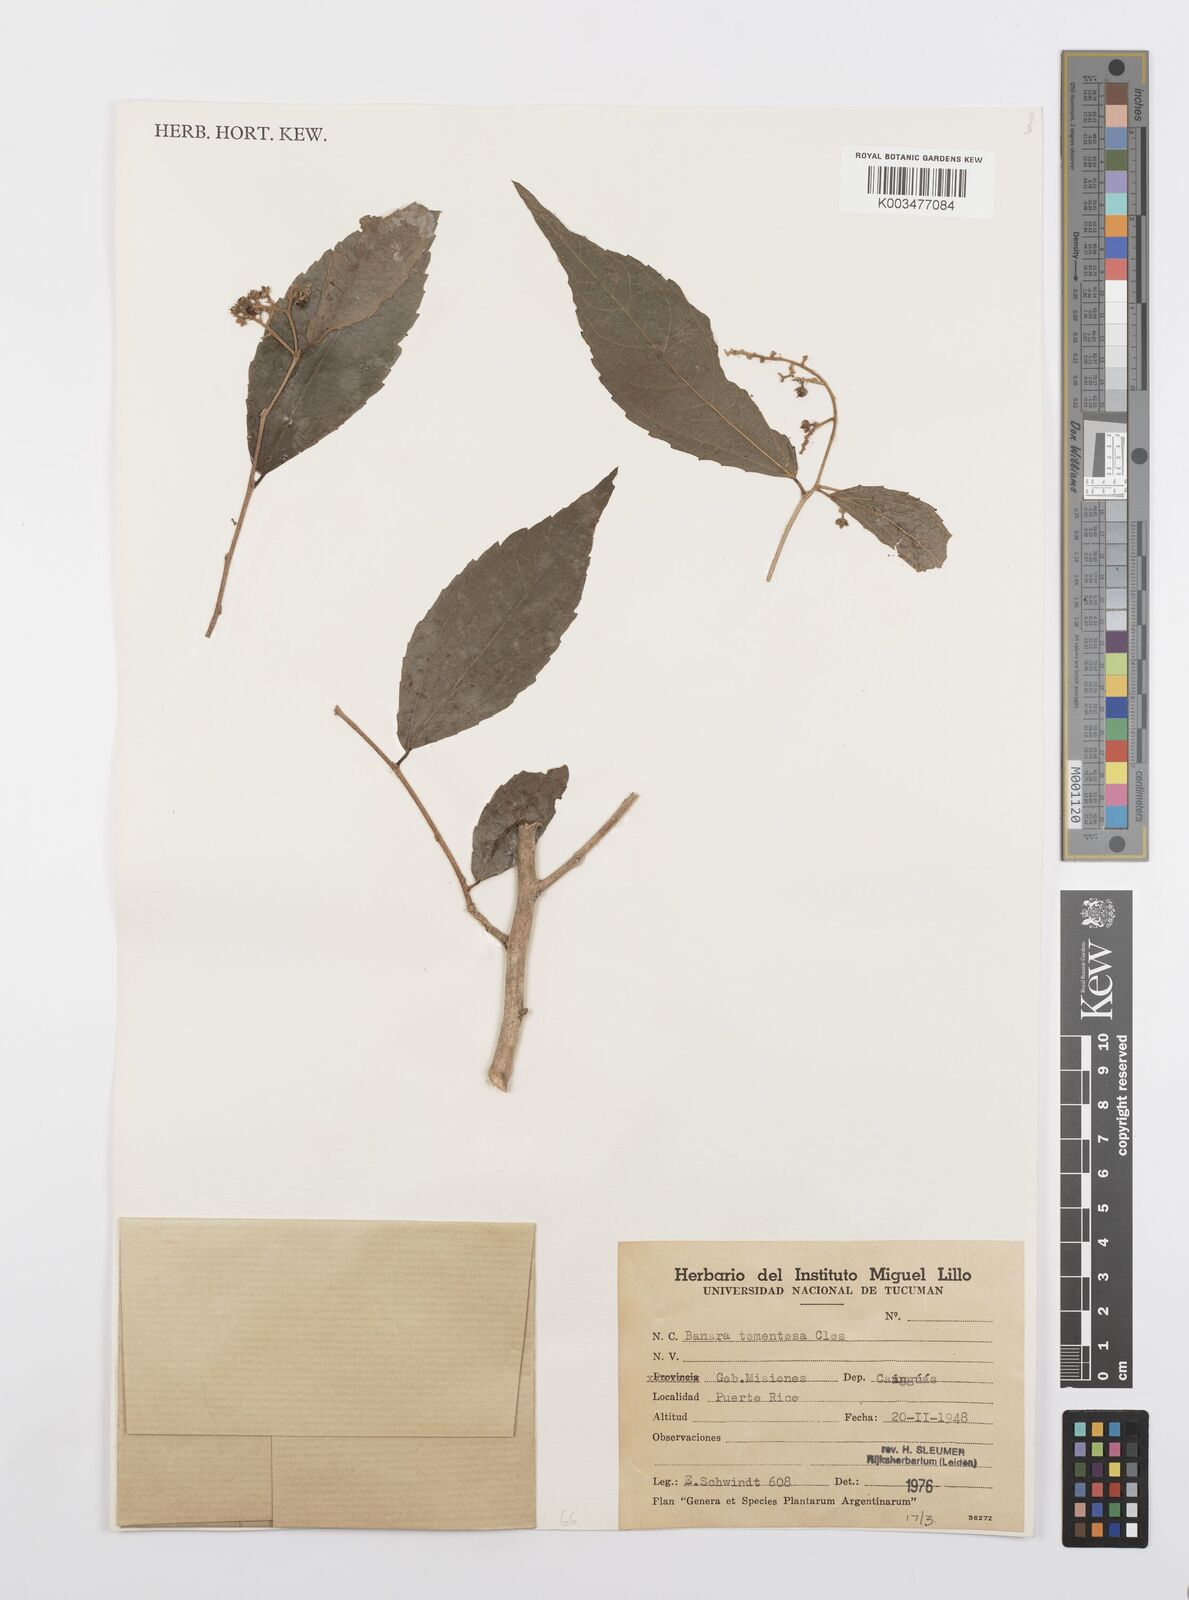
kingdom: Plantae
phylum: Tracheophyta
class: Magnoliopsida
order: Malpighiales
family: Salicaceae
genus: Banara
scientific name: Banara tomentosa
